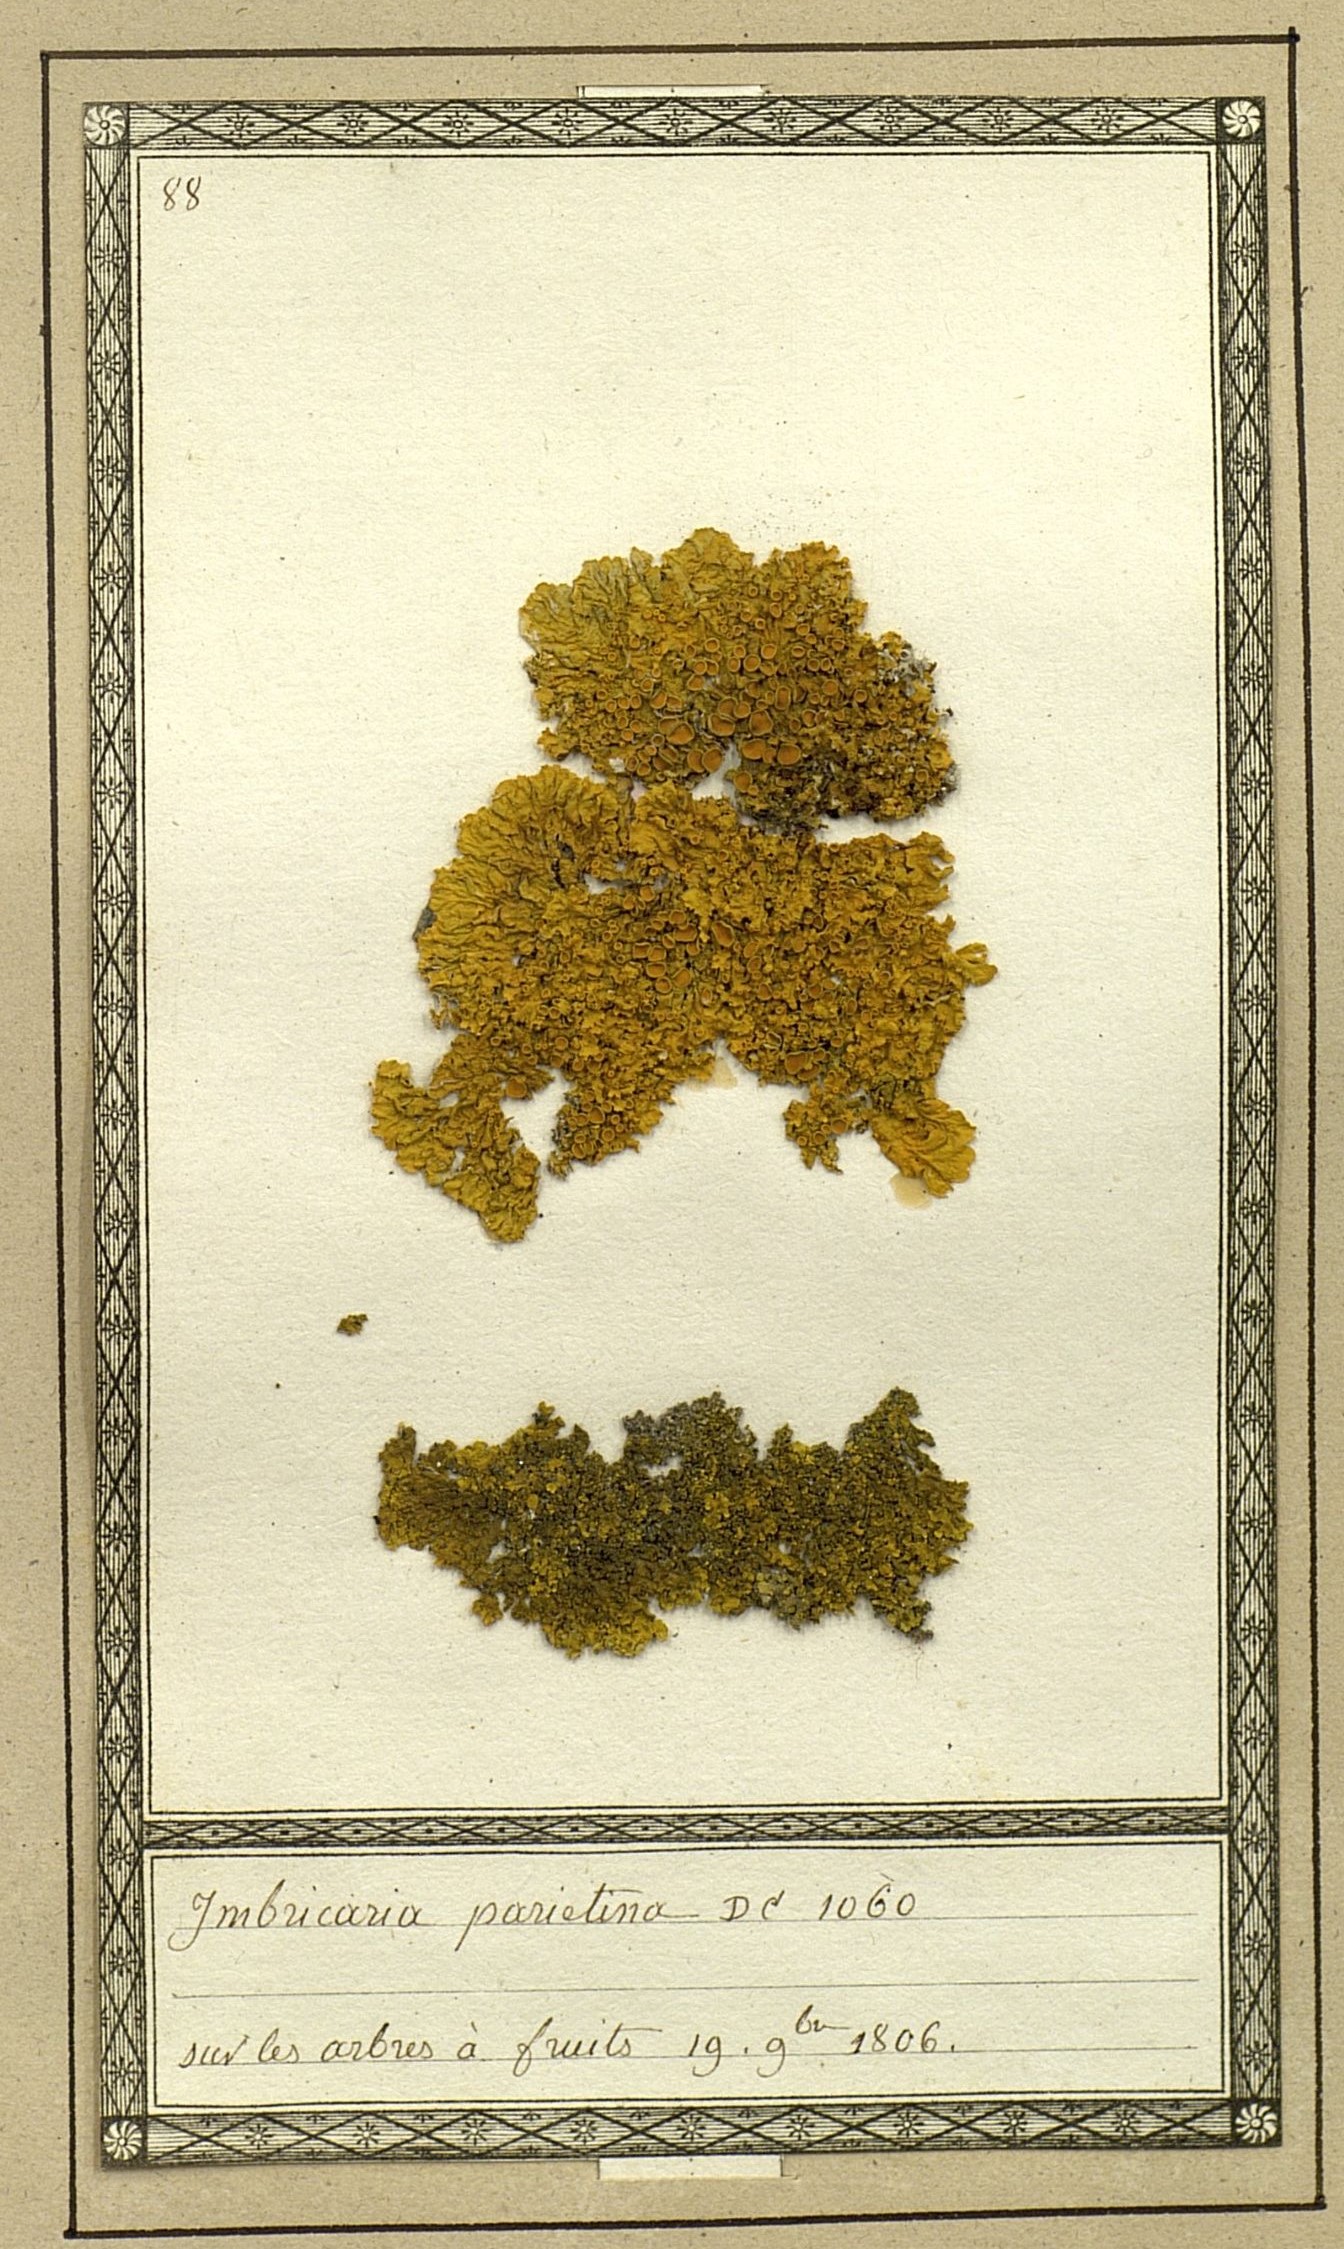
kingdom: Fungi
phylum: Ascomycota
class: Lecanoromycetes
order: Teloschistales
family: Teloschistaceae
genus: Xanthoria
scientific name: Xanthoria parietina
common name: Common orange lichen
